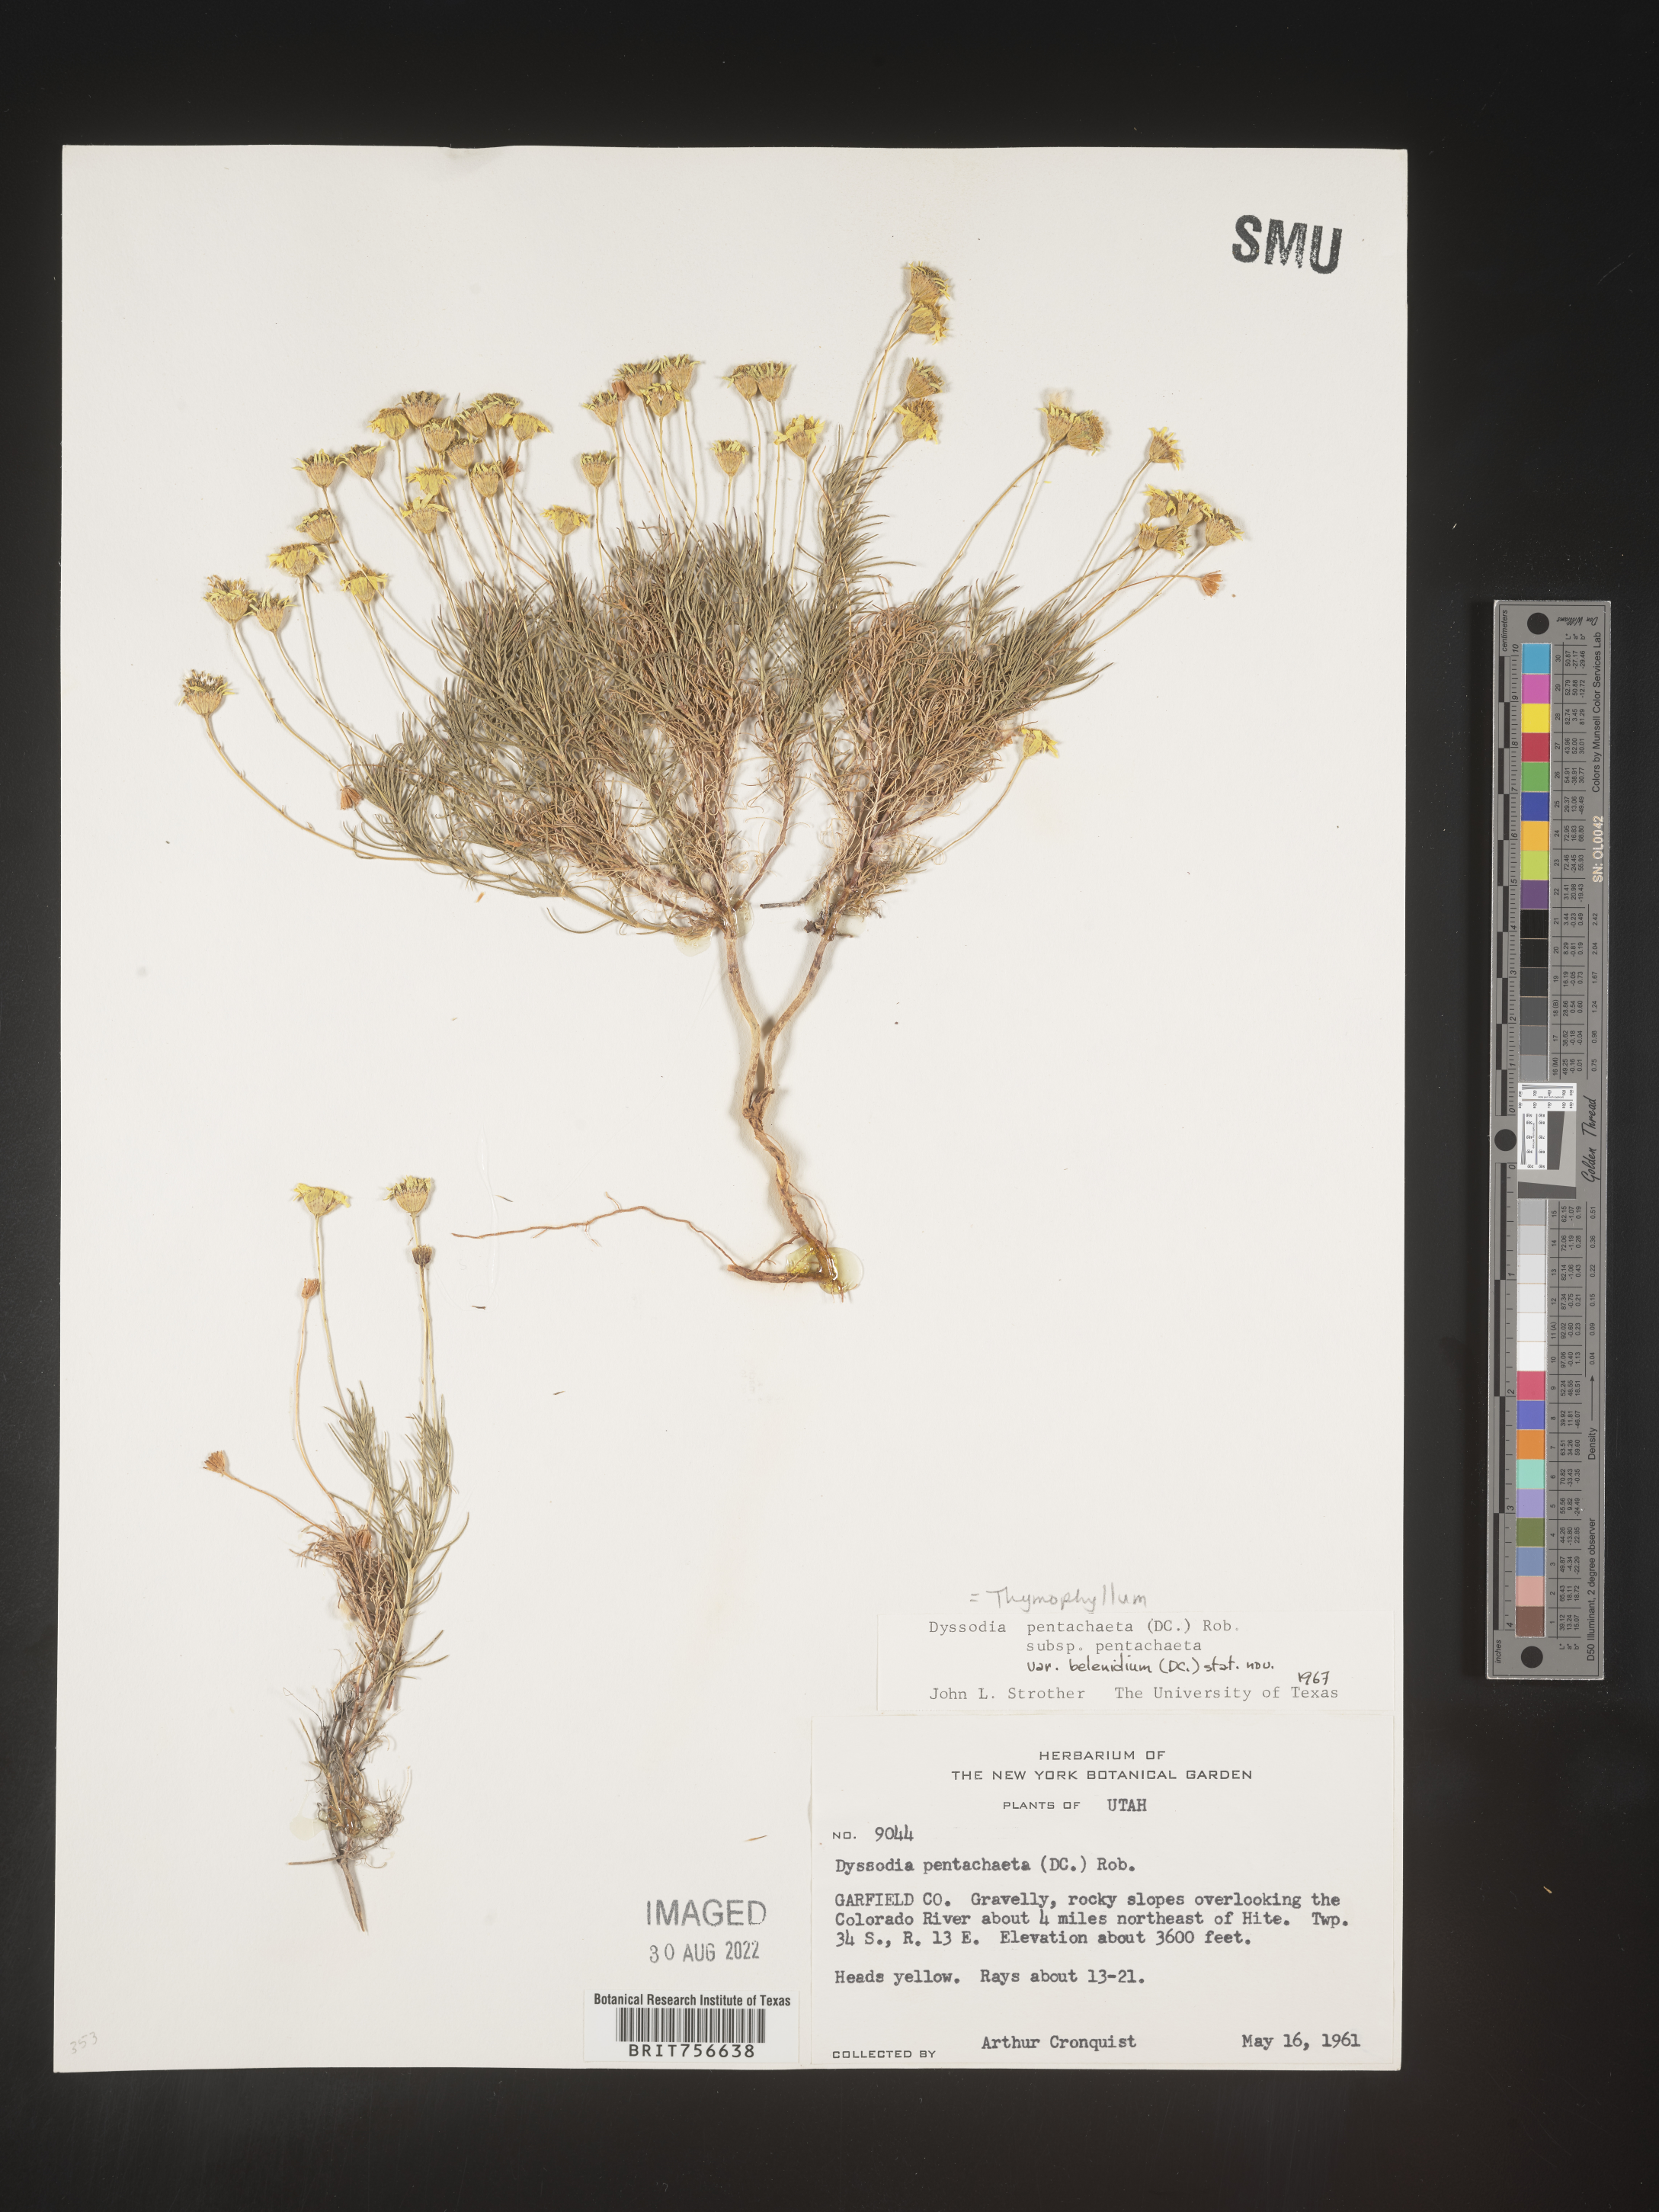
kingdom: Plantae
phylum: Tracheophyta
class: Magnoliopsida
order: Asterales
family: Asteraceae
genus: Thymophylla
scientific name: Thymophylla pentachaeta
